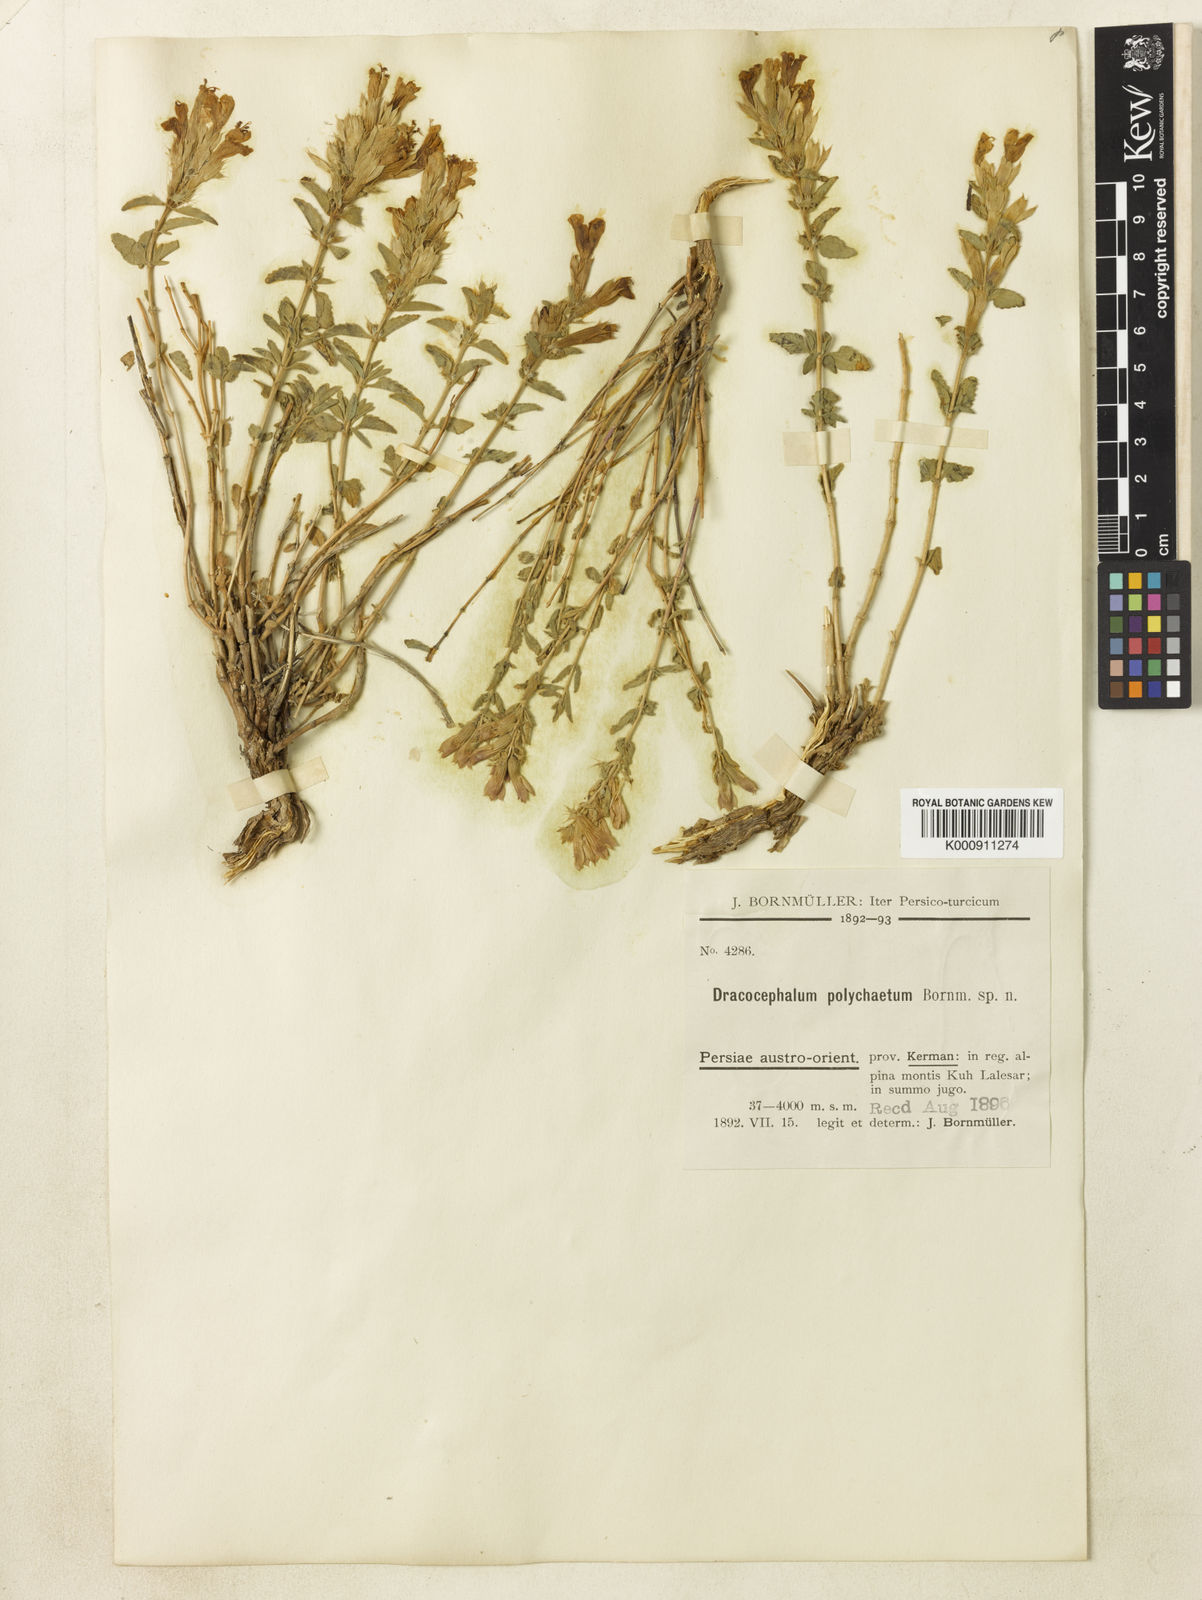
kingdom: Plantae
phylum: Tracheophyta
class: Magnoliopsida
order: Lamiales
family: Lamiaceae
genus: Dracocephalum
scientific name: Dracocephalum polychaetum
